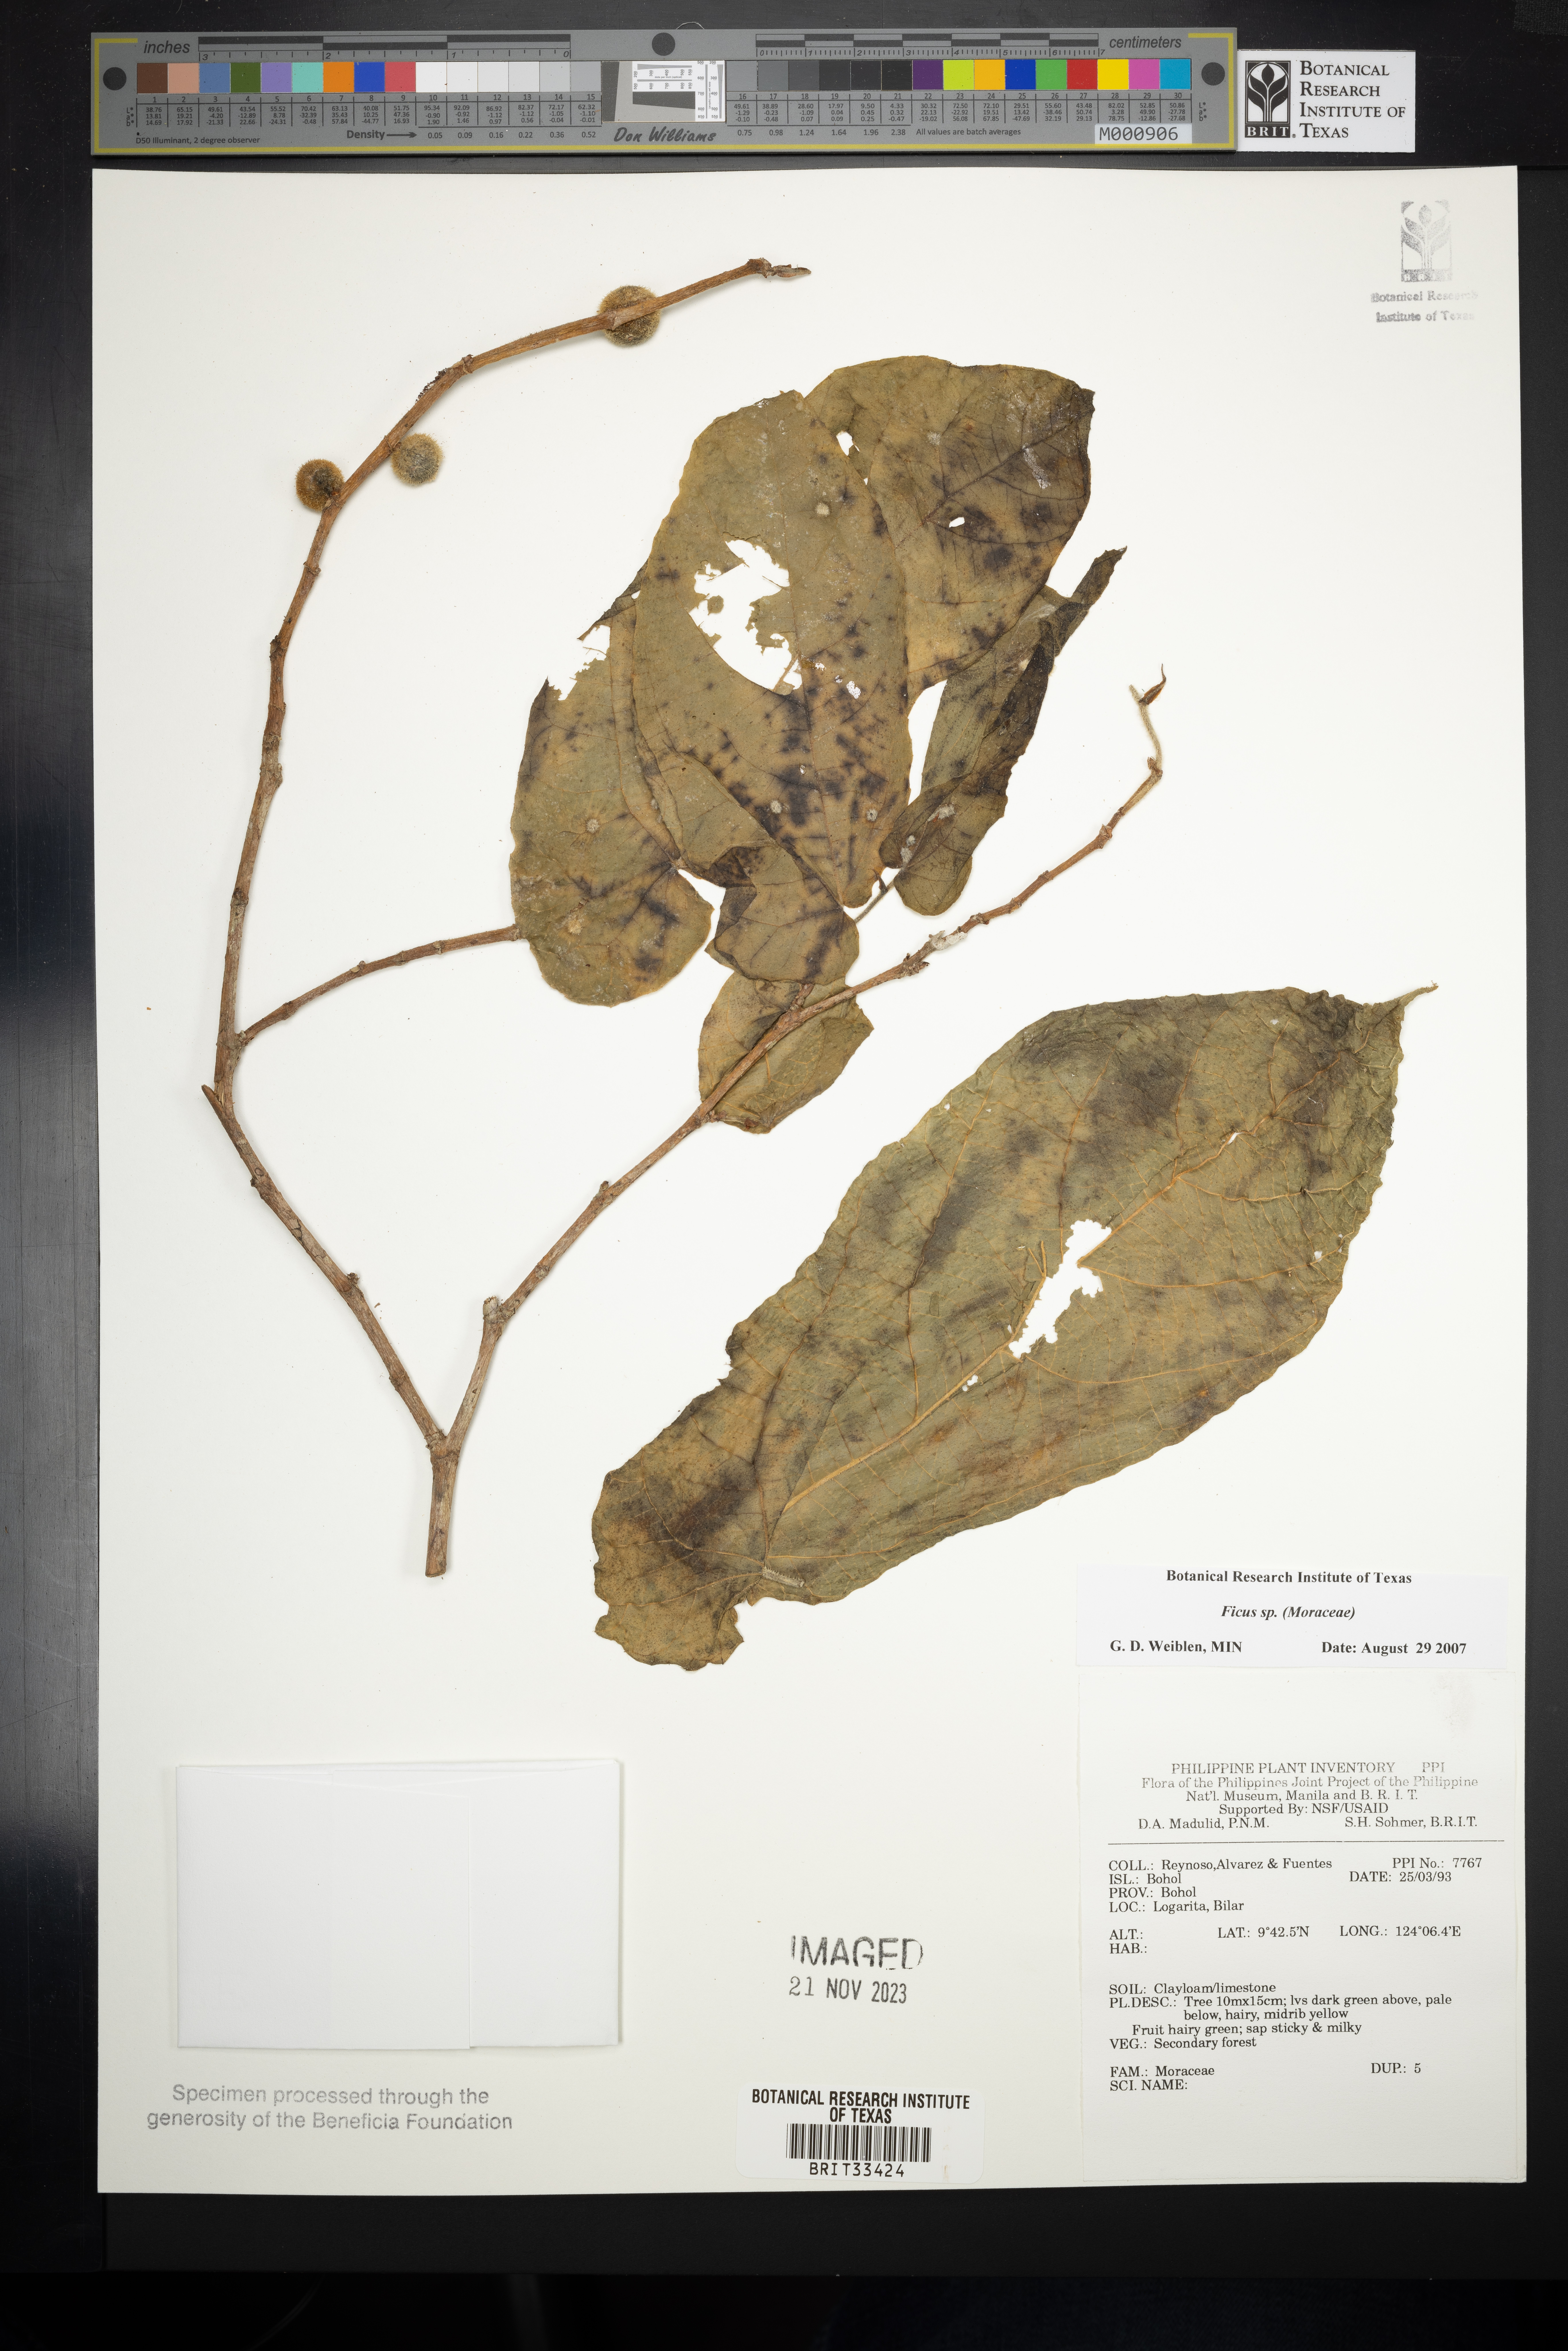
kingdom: Plantae
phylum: Tracheophyta
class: Magnoliopsida
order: Rosales
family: Moraceae
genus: Ficus
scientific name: Ficus
